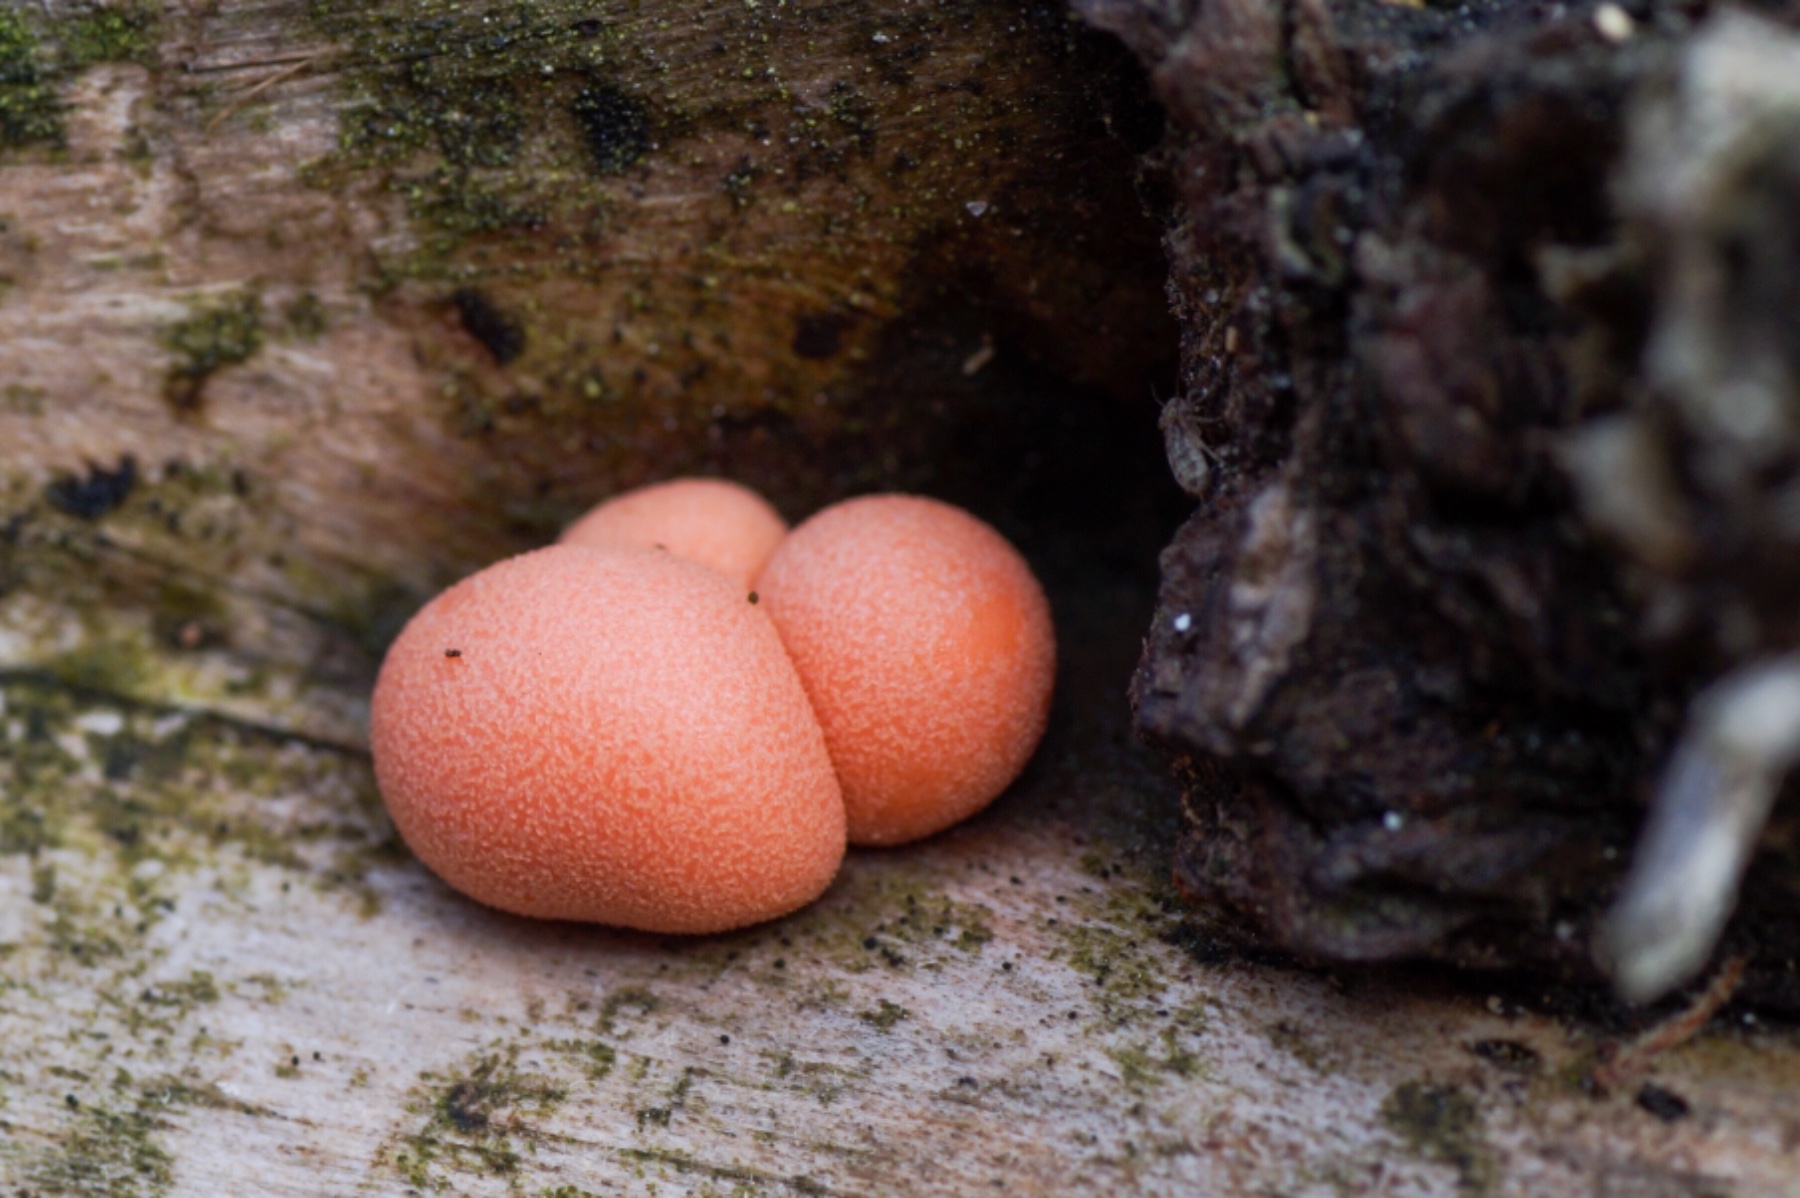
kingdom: Protozoa
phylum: Mycetozoa
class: Myxomycetes
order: Cribrariales
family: Tubiferaceae
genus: Lycogala
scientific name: Lycogala epidendrum
